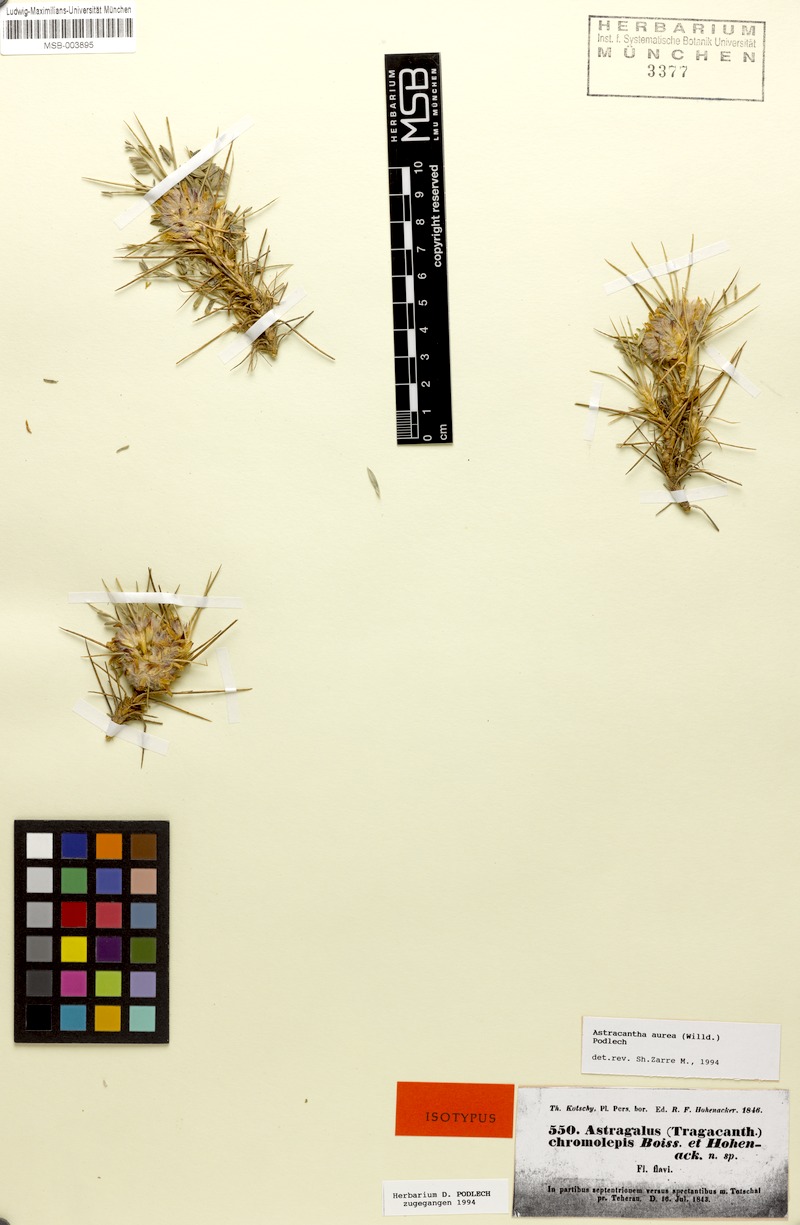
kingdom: Plantae
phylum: Tracheophyta
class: Magnoliopsida
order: Fabales
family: Fabaceae
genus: Astragalus
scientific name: Astragalus aureus
